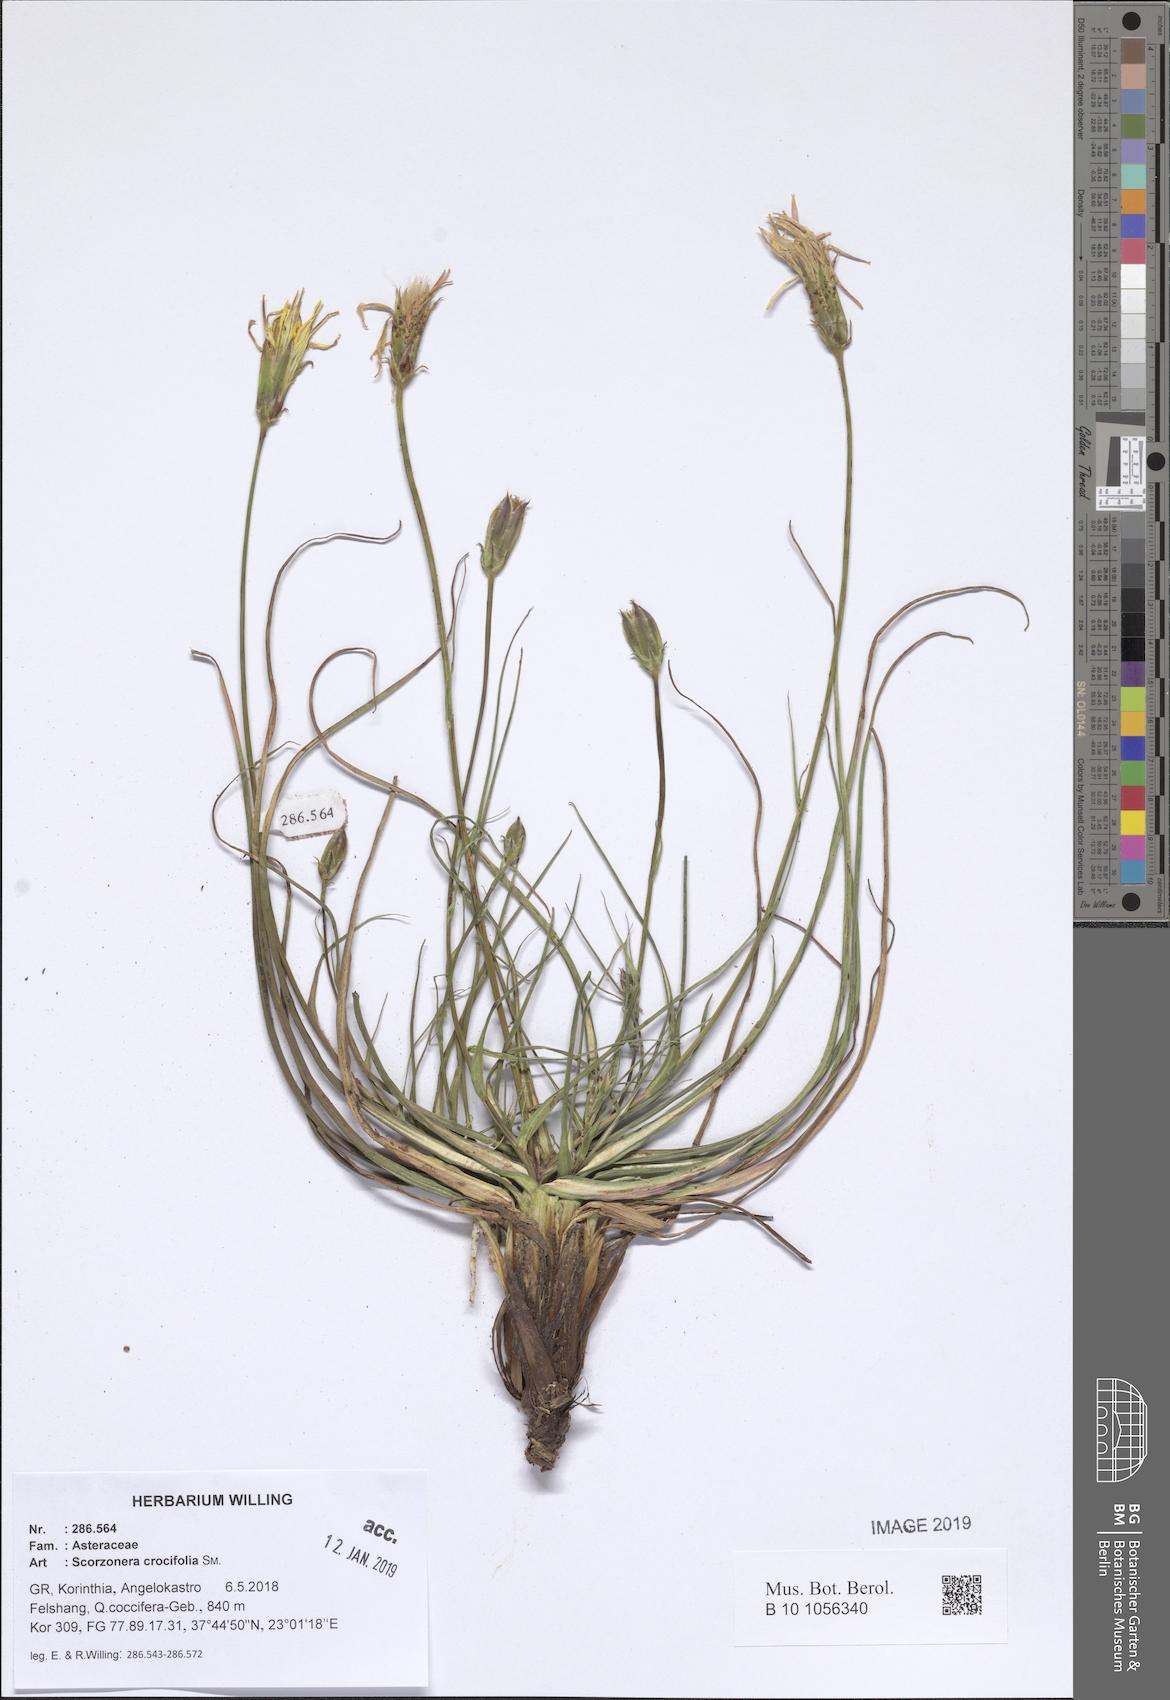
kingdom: Plantae
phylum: Tracheophyta
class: Magnoliopsida
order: Asterales
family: Asteraceae
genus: Pseudopodospermum
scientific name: Pseudopodospermum crocifolium
